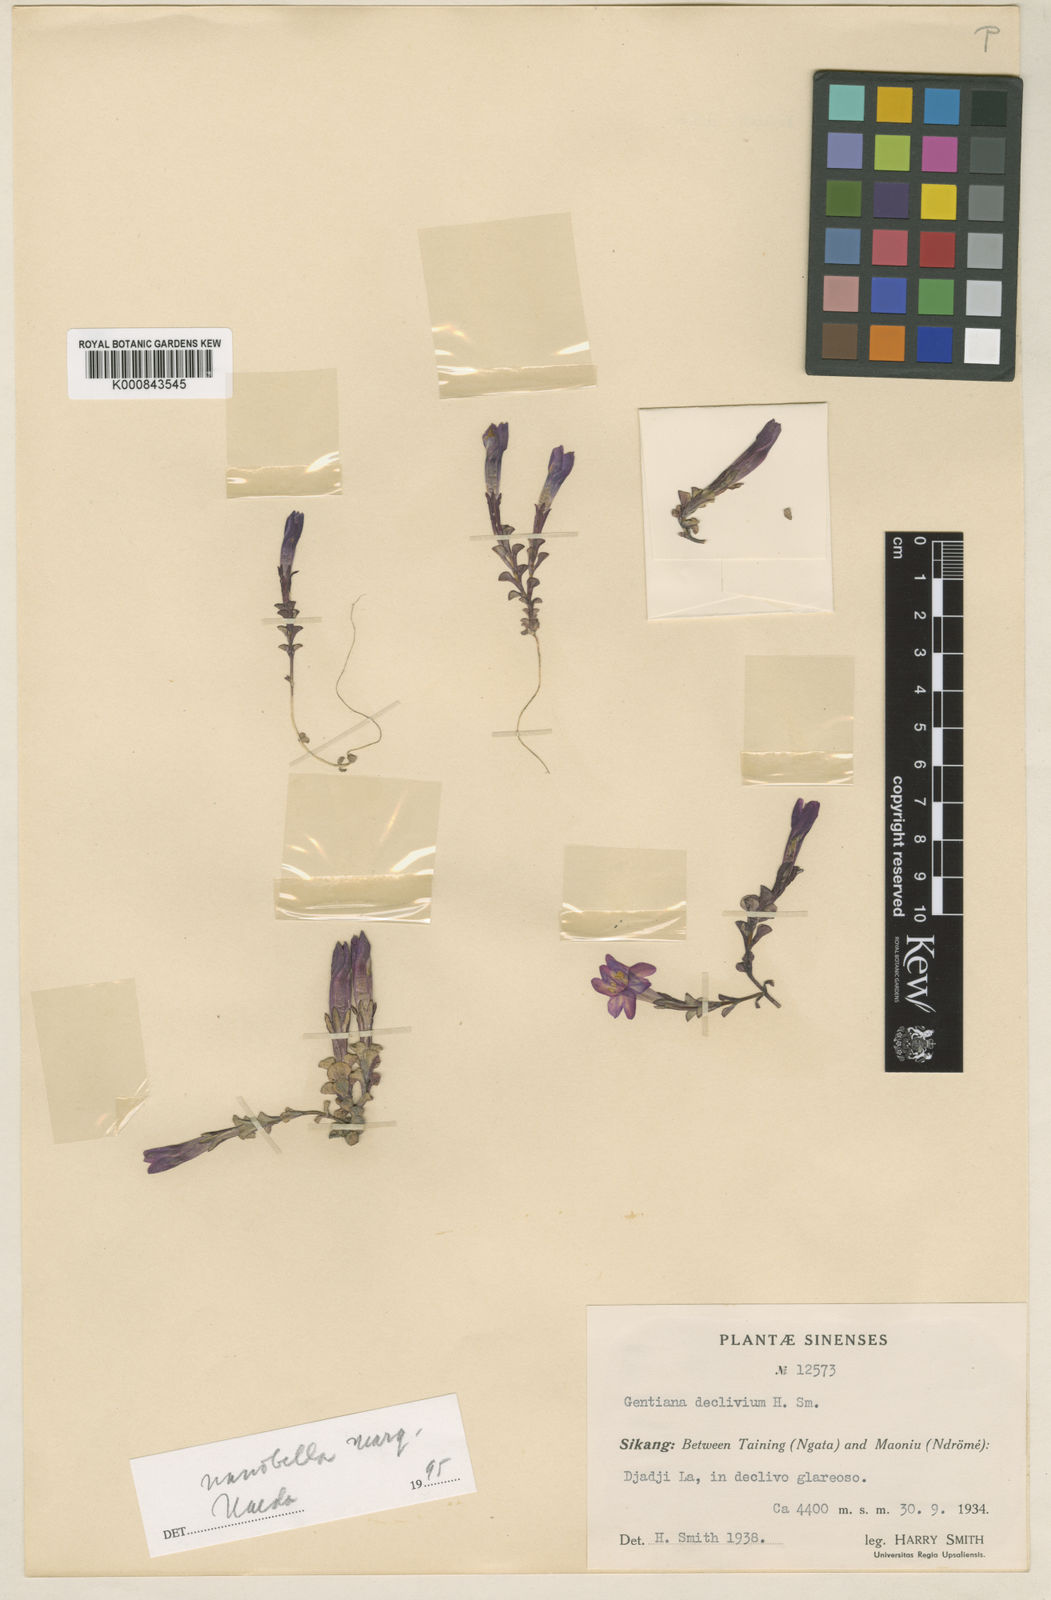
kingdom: Plantae
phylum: Tracheophyta
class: Magnoliopsida
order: Gentianales
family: Gentianaceae
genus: Gentiana
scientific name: Gentiana nanobella
